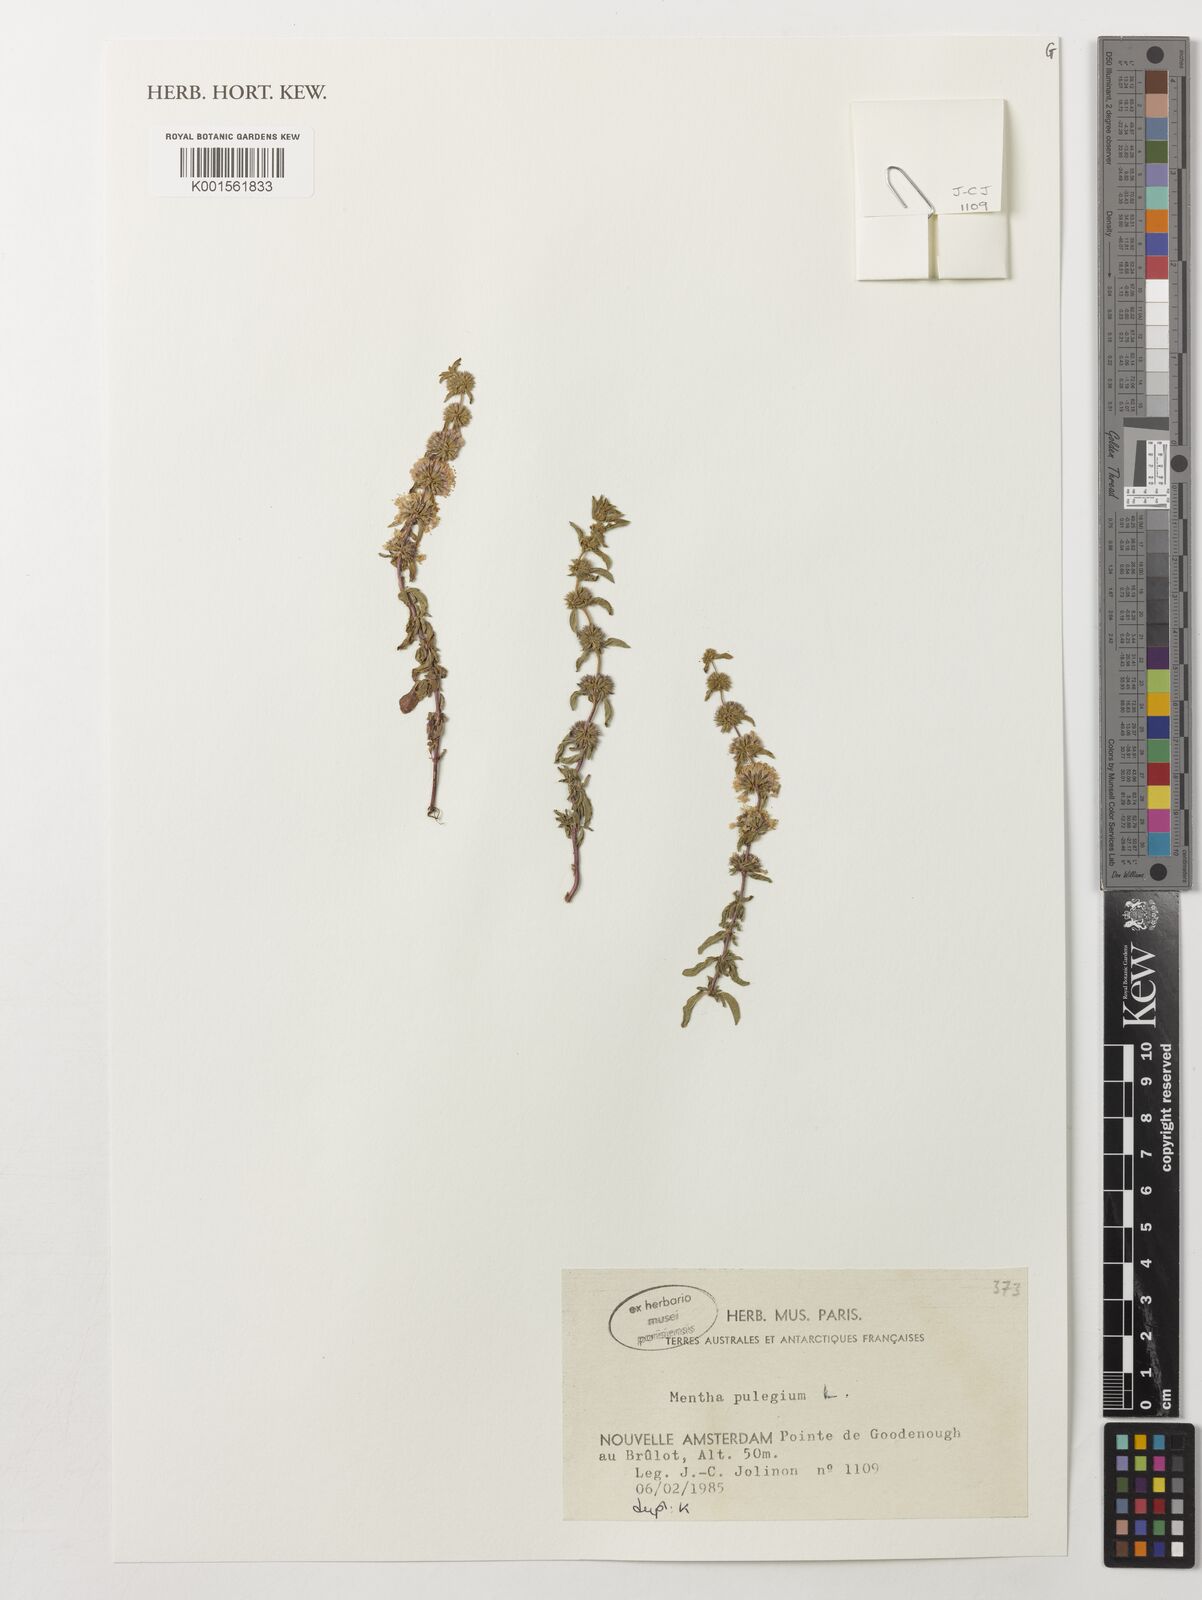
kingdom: Plantae
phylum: Tracheophyta
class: Magnoliopsida
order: Lamiales
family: Lamiaceae
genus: Mentha
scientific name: Mentha pulegium
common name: Pennyroyal
